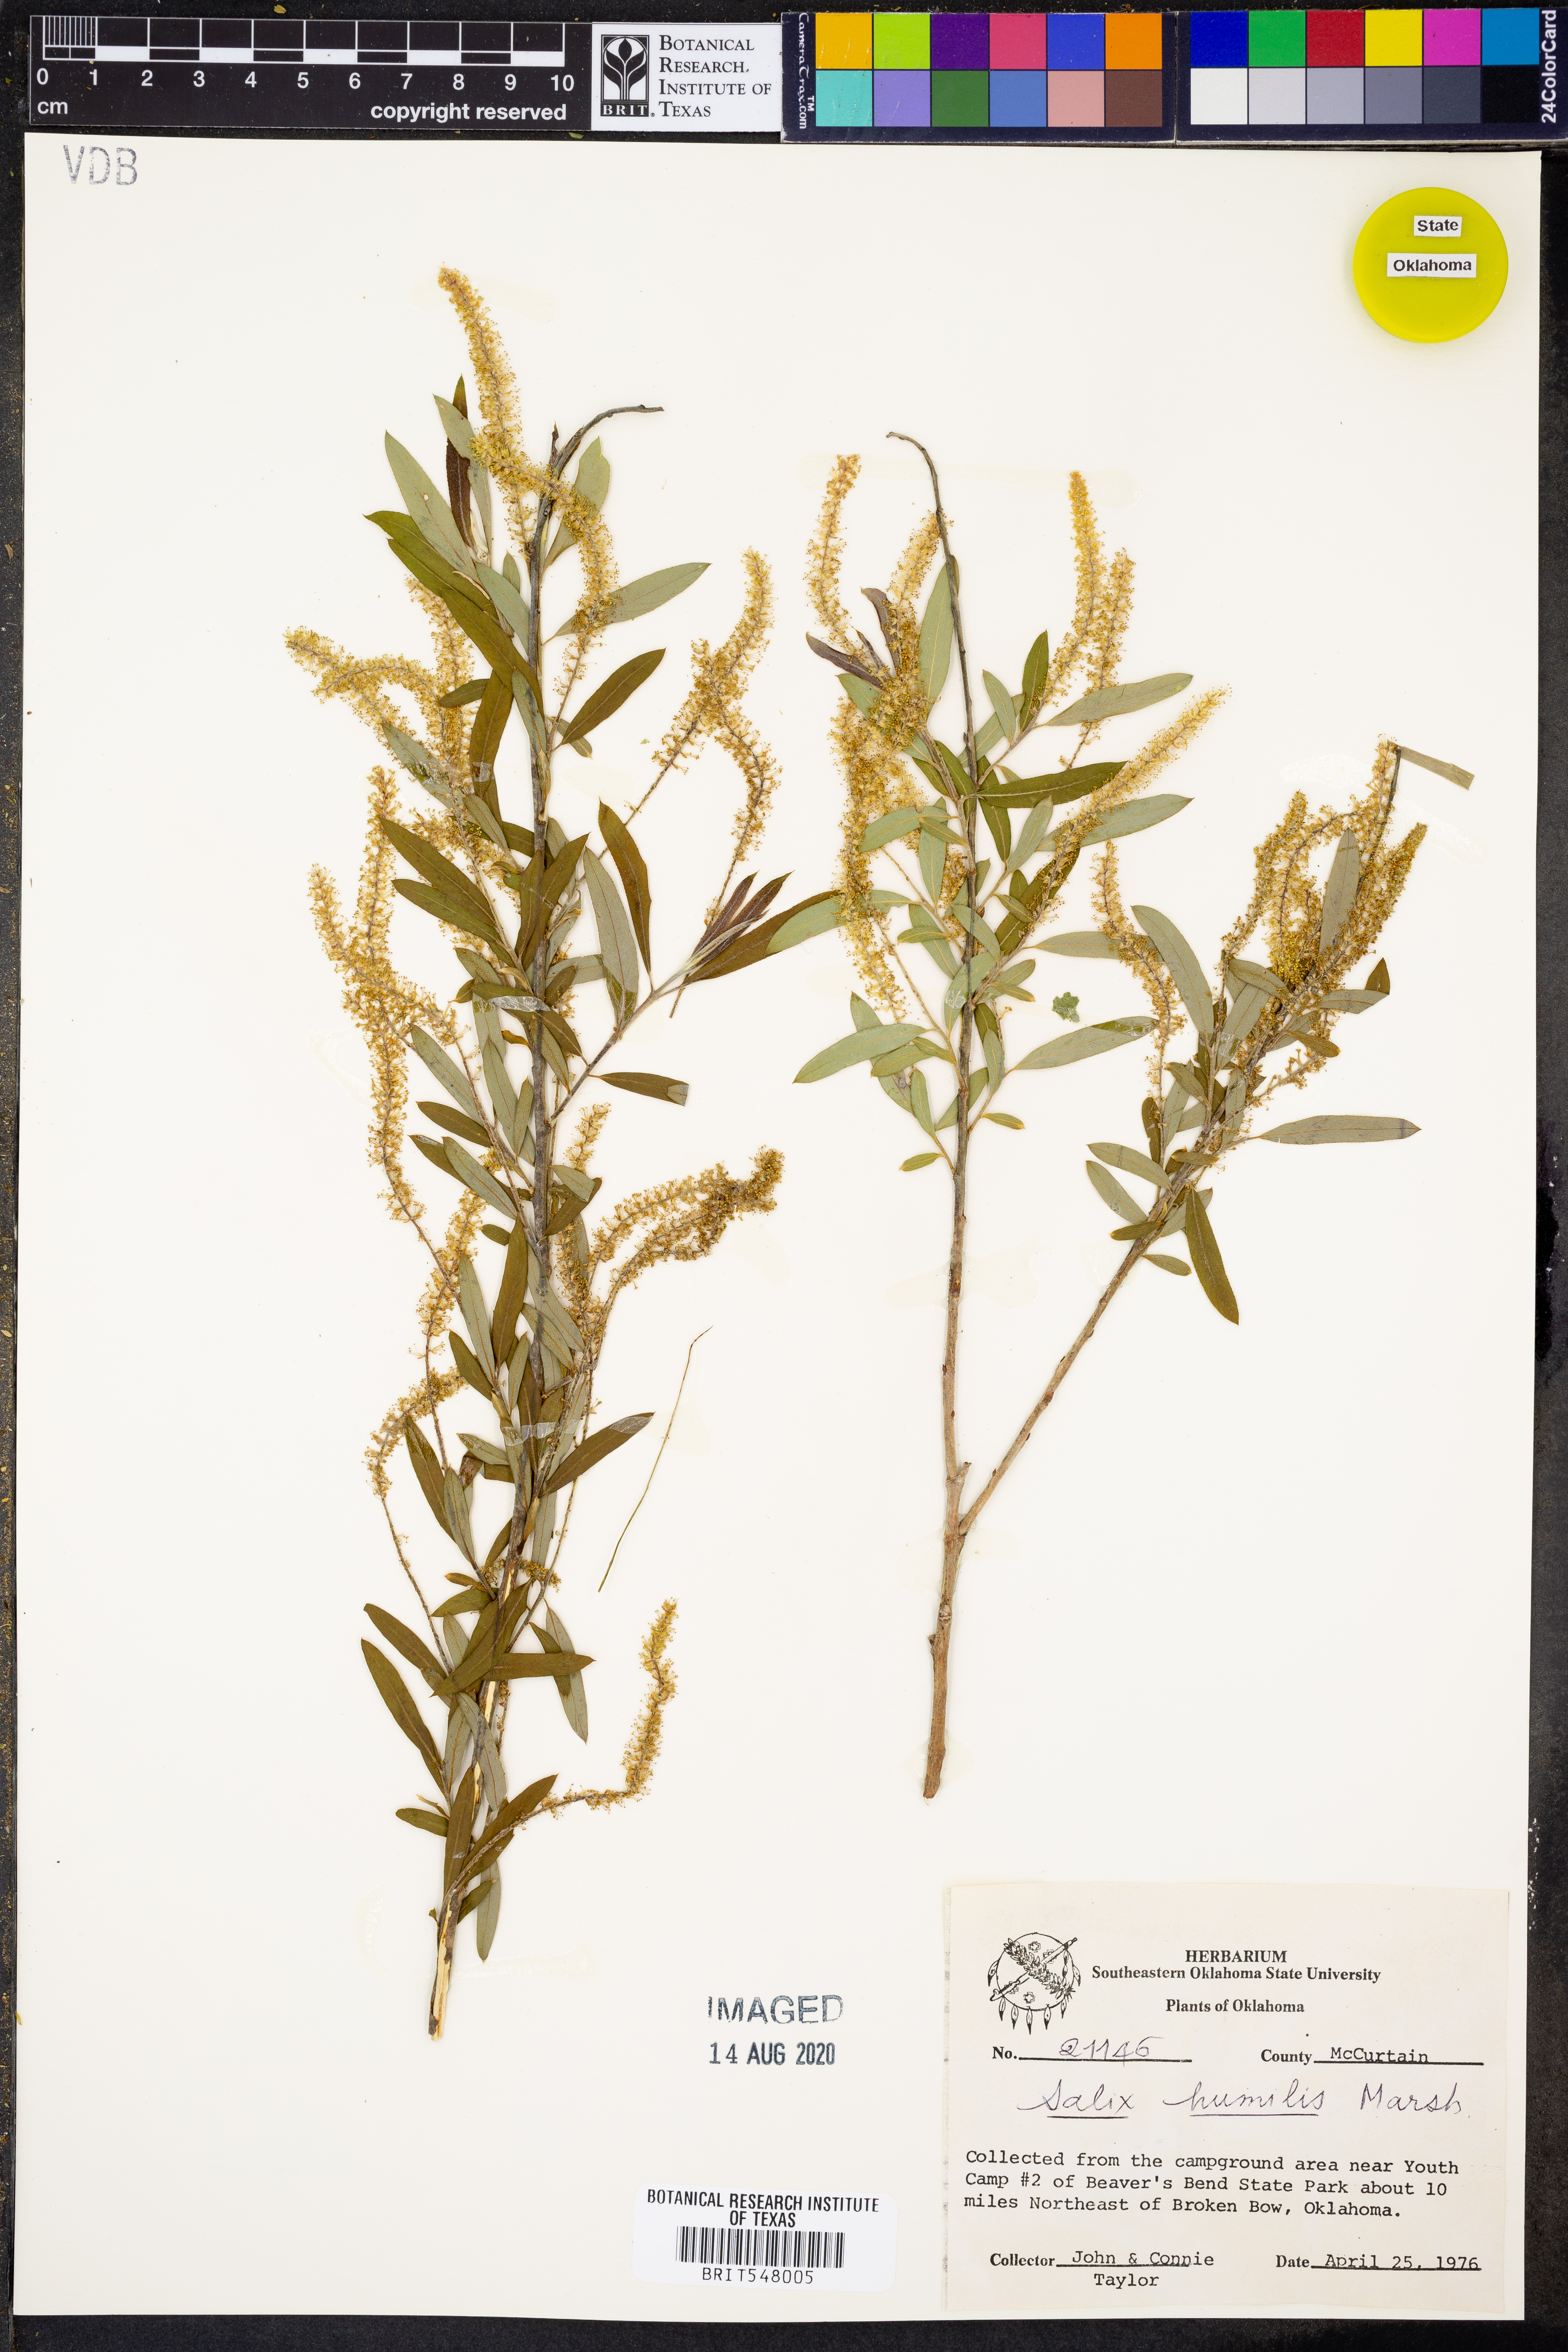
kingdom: Plantae
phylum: Tracheophyta
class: Magnoliopsida
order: Malpighiales
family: Salicaceae
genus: Salix
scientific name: Salix humilis
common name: Prairie willow
